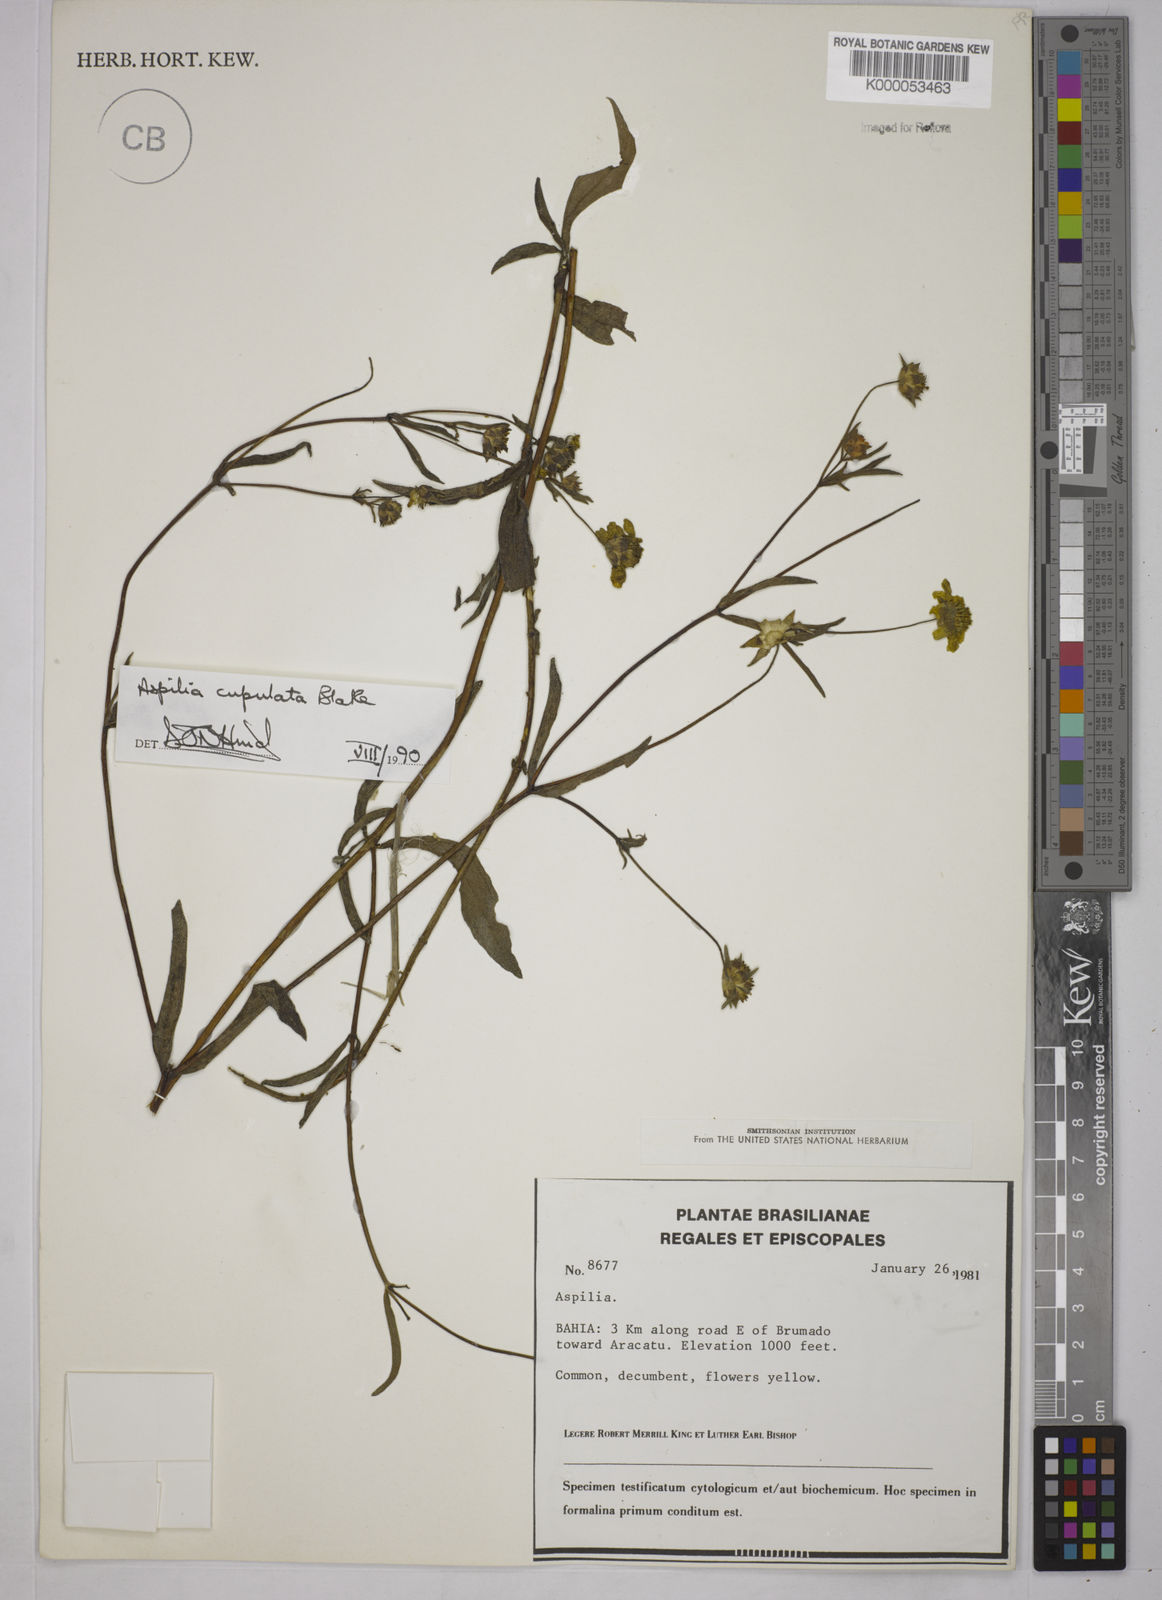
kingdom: Plantae
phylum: Tracheophyta
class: Magnoliopsida
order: Asterales
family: Asteraceae
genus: Aspilia
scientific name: Aspilia
